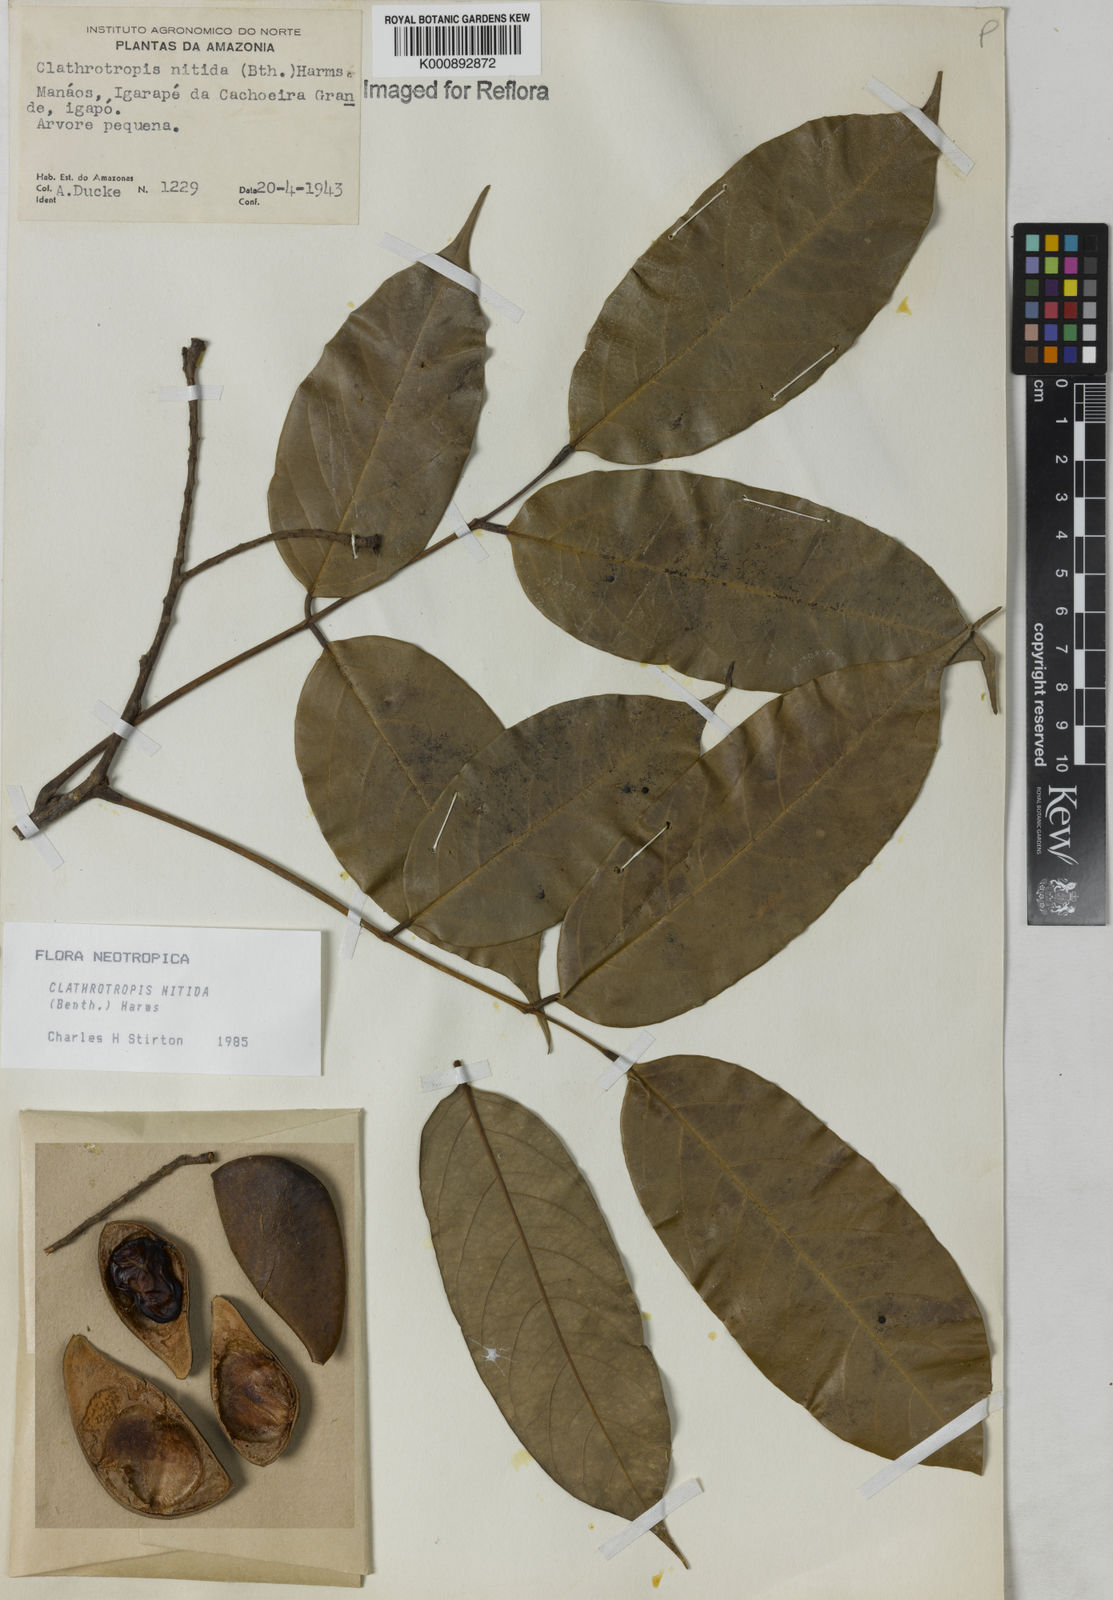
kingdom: Plantae
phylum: Tracheophyta
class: Magnoliopsida
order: Fabales
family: Fabaceae
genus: Clathrotropis
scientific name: Clathrotropis nitida
